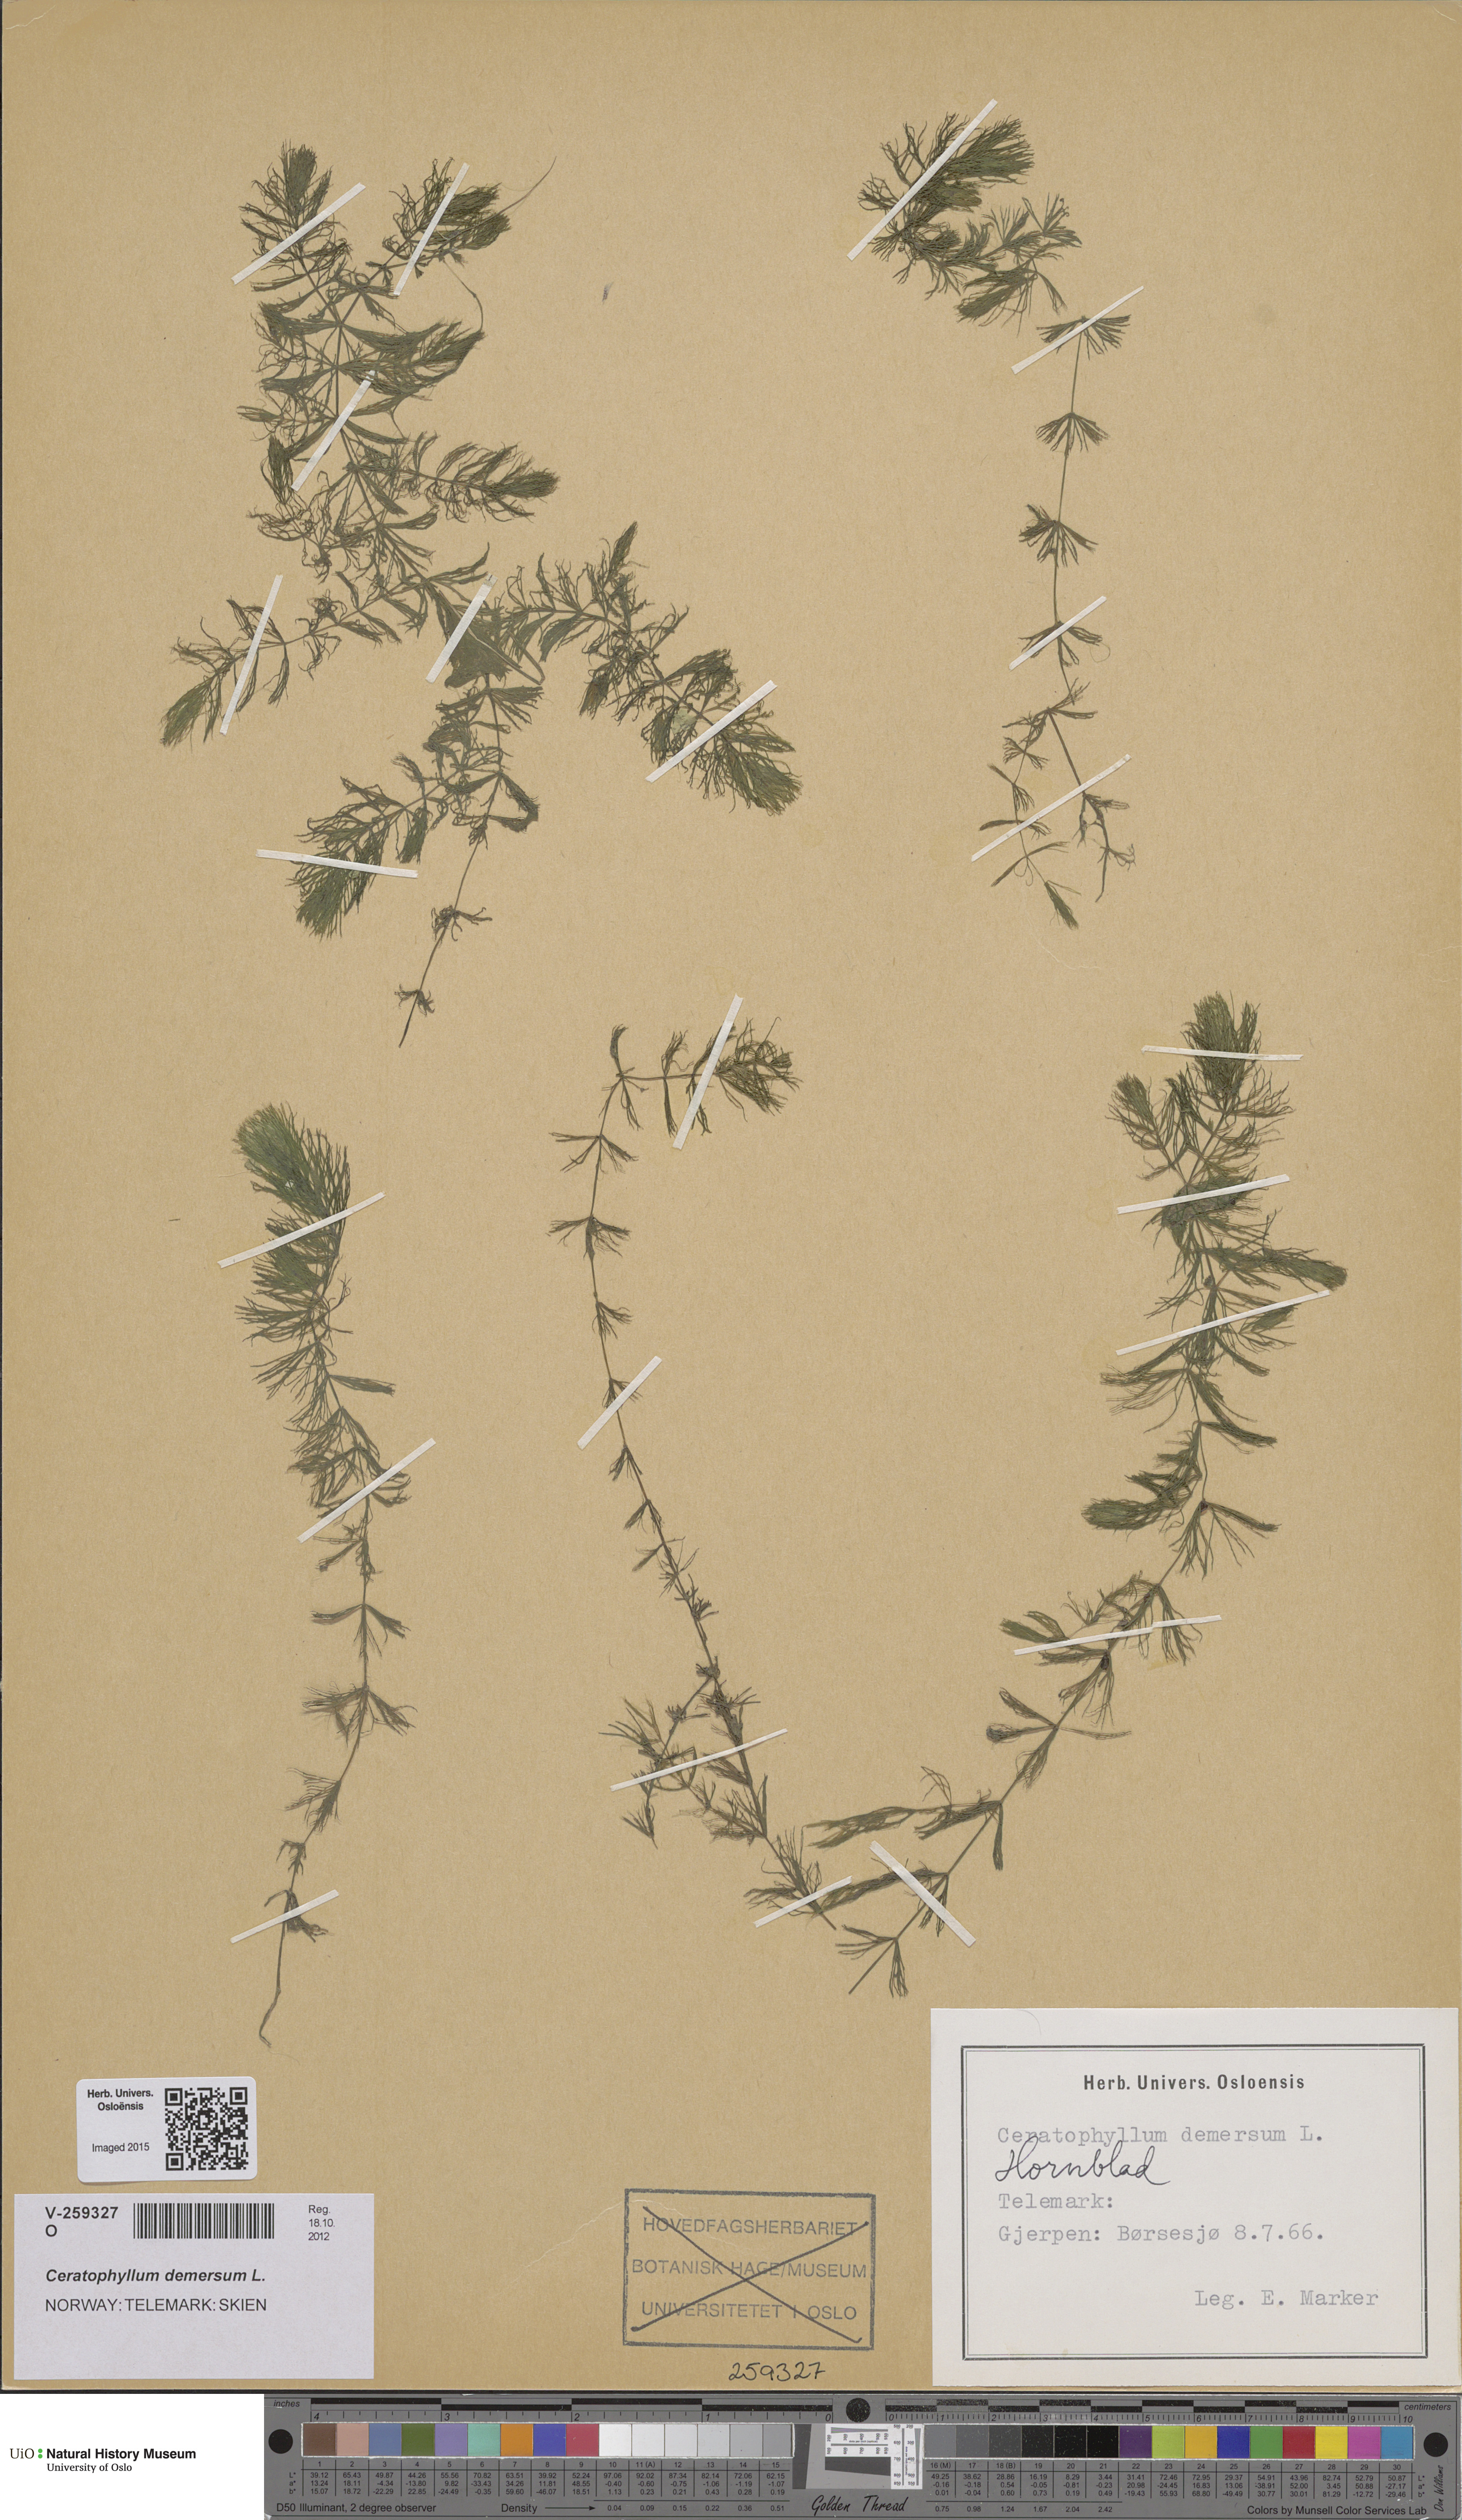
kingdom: Plantae
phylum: Tracheophyta
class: Magnoliopsida
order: Ceratophyllales
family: Ceratophyllaceae
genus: Ceratophyllum
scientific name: Ceratophyllum demersum
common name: Rigid hornwort
